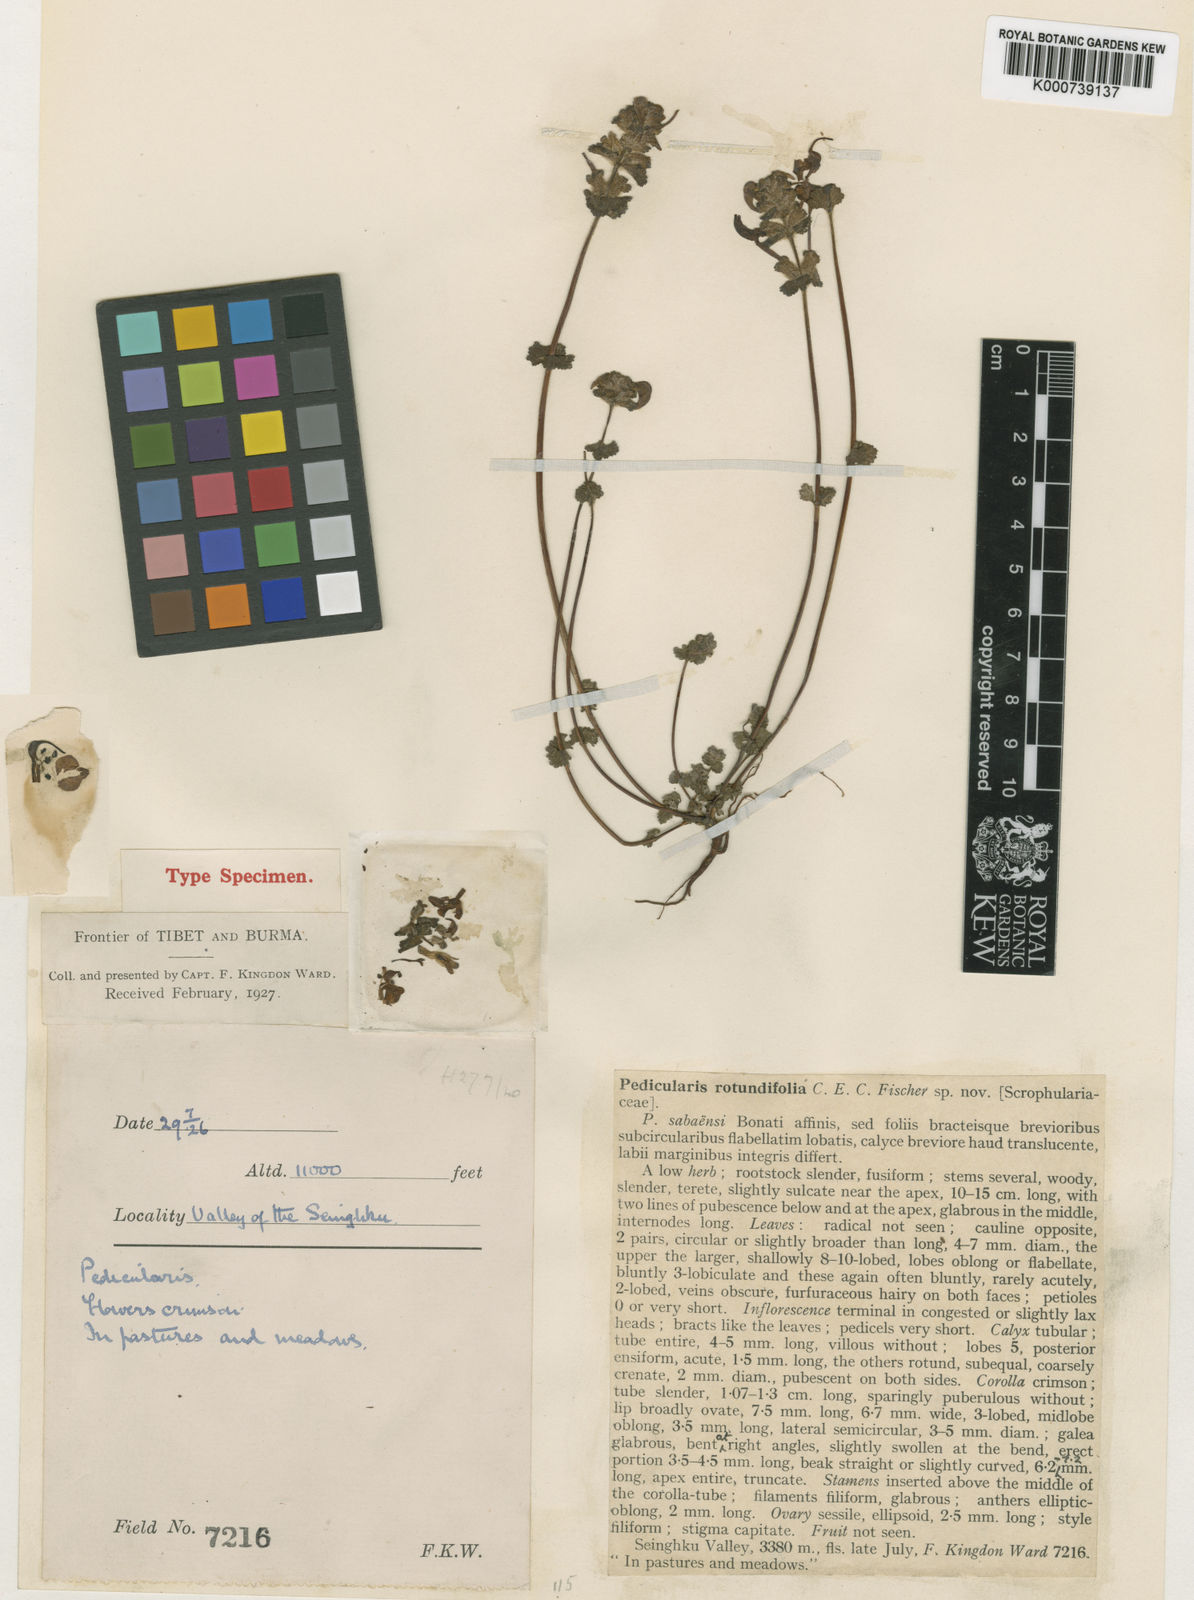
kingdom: Plantae
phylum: Tracheophyta
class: Magnoliopsida
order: Lamiales
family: Orobanchaceae
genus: Pedicularis
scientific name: Pedicularis rotundifolia
